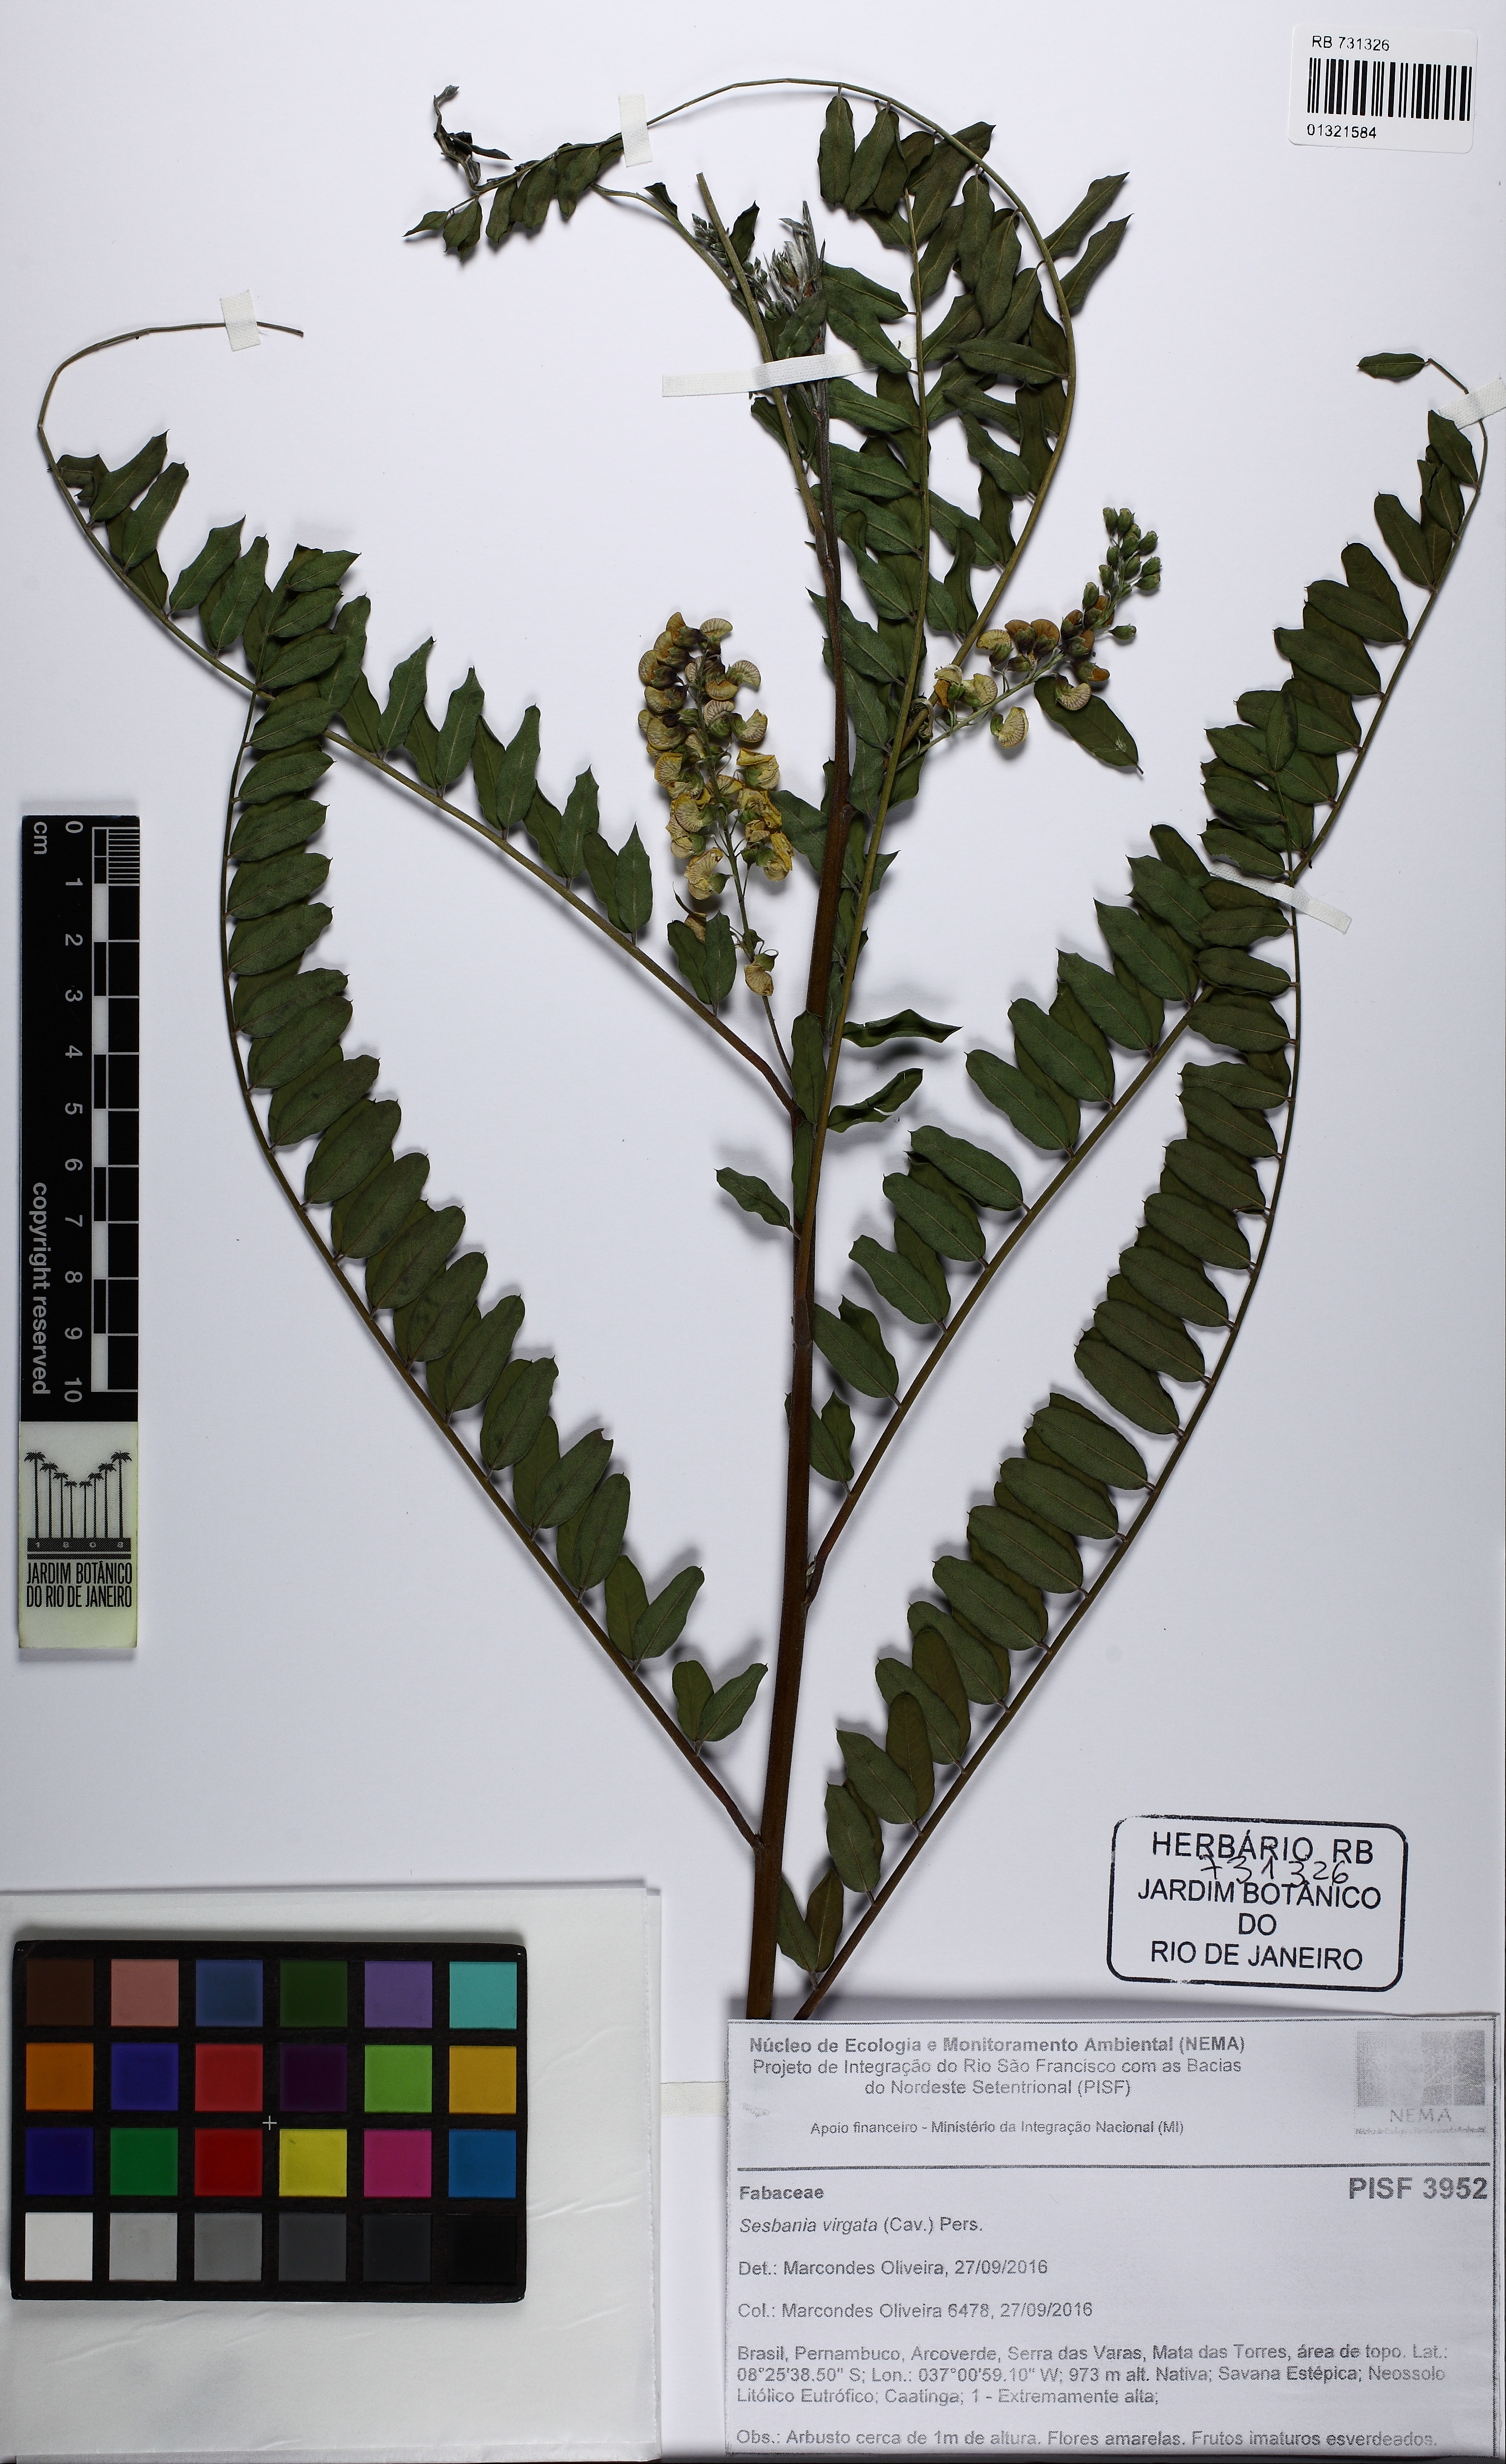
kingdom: Plantae
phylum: Tracheophyta
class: Magnoliopsida
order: Fabales
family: Fabaceae
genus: Sesbania
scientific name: Sesbania virgata
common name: Wand riverhemp
